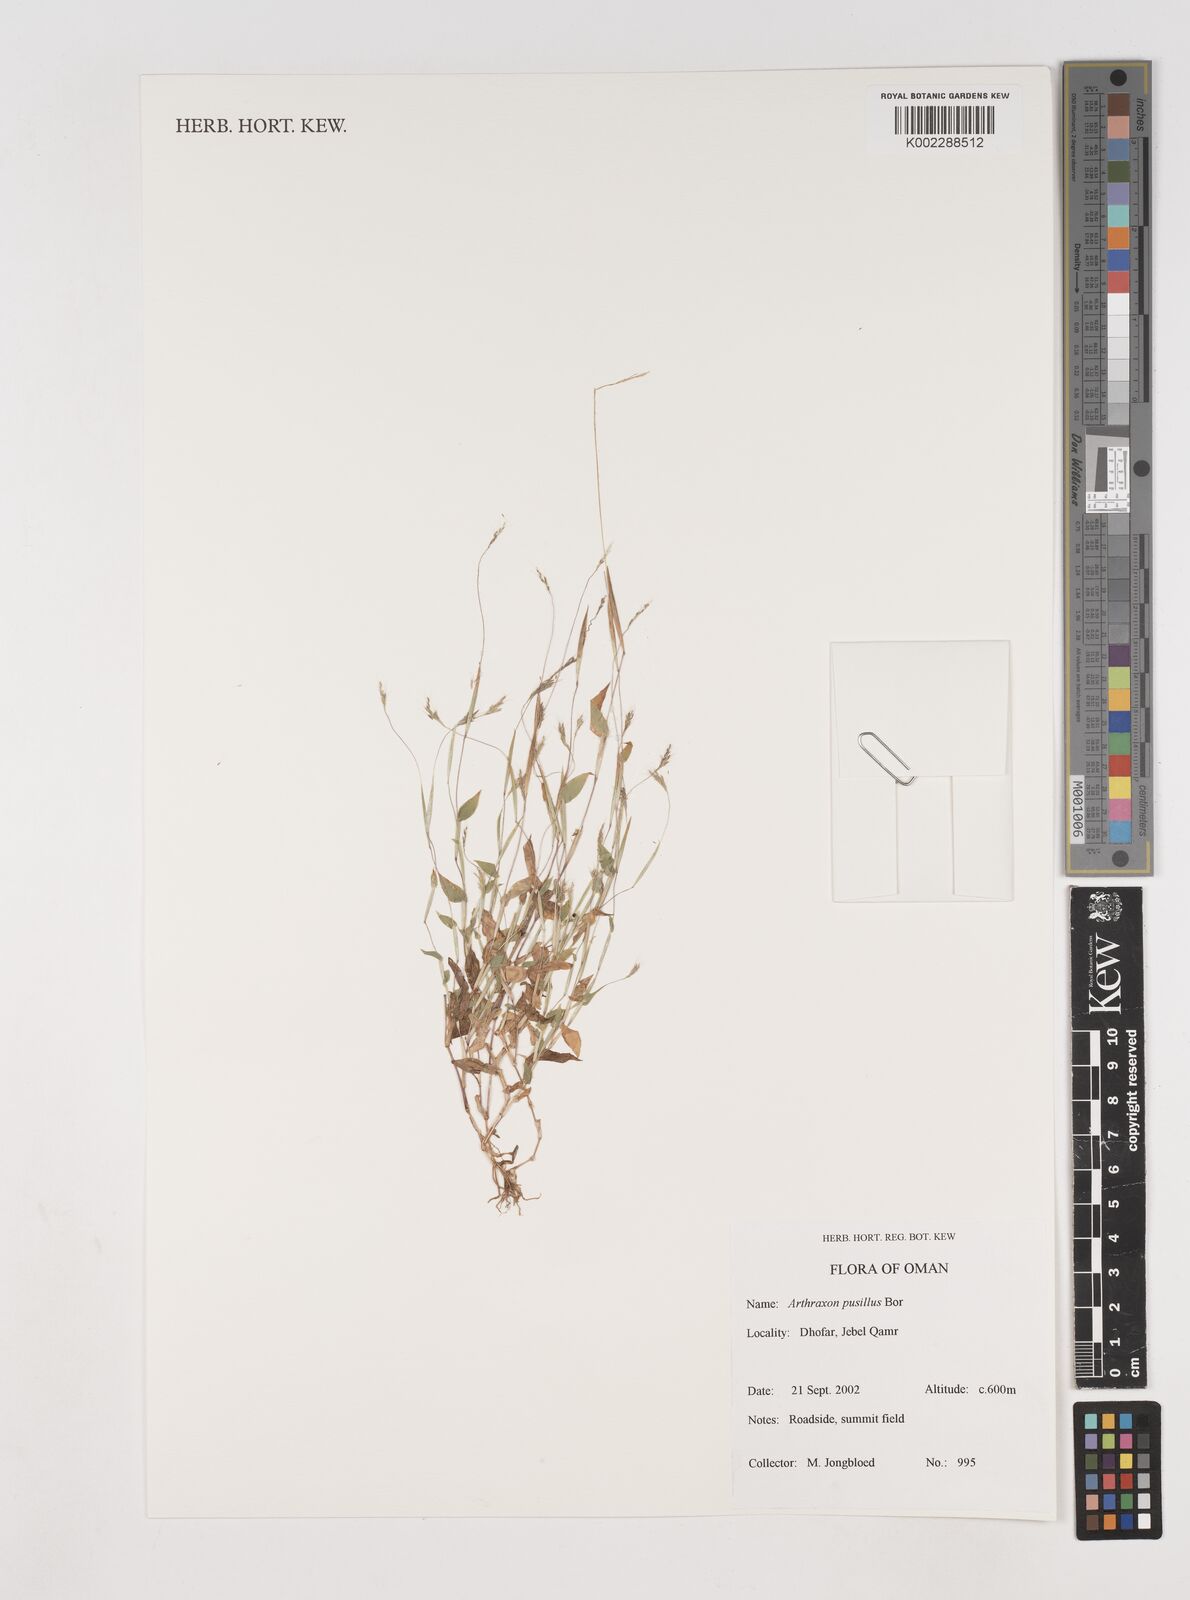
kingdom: Plantae
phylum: Tracheophyta
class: Liliopsida
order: Poales
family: Poaceae
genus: Arthraxon
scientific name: Arthraxon junnarensis
